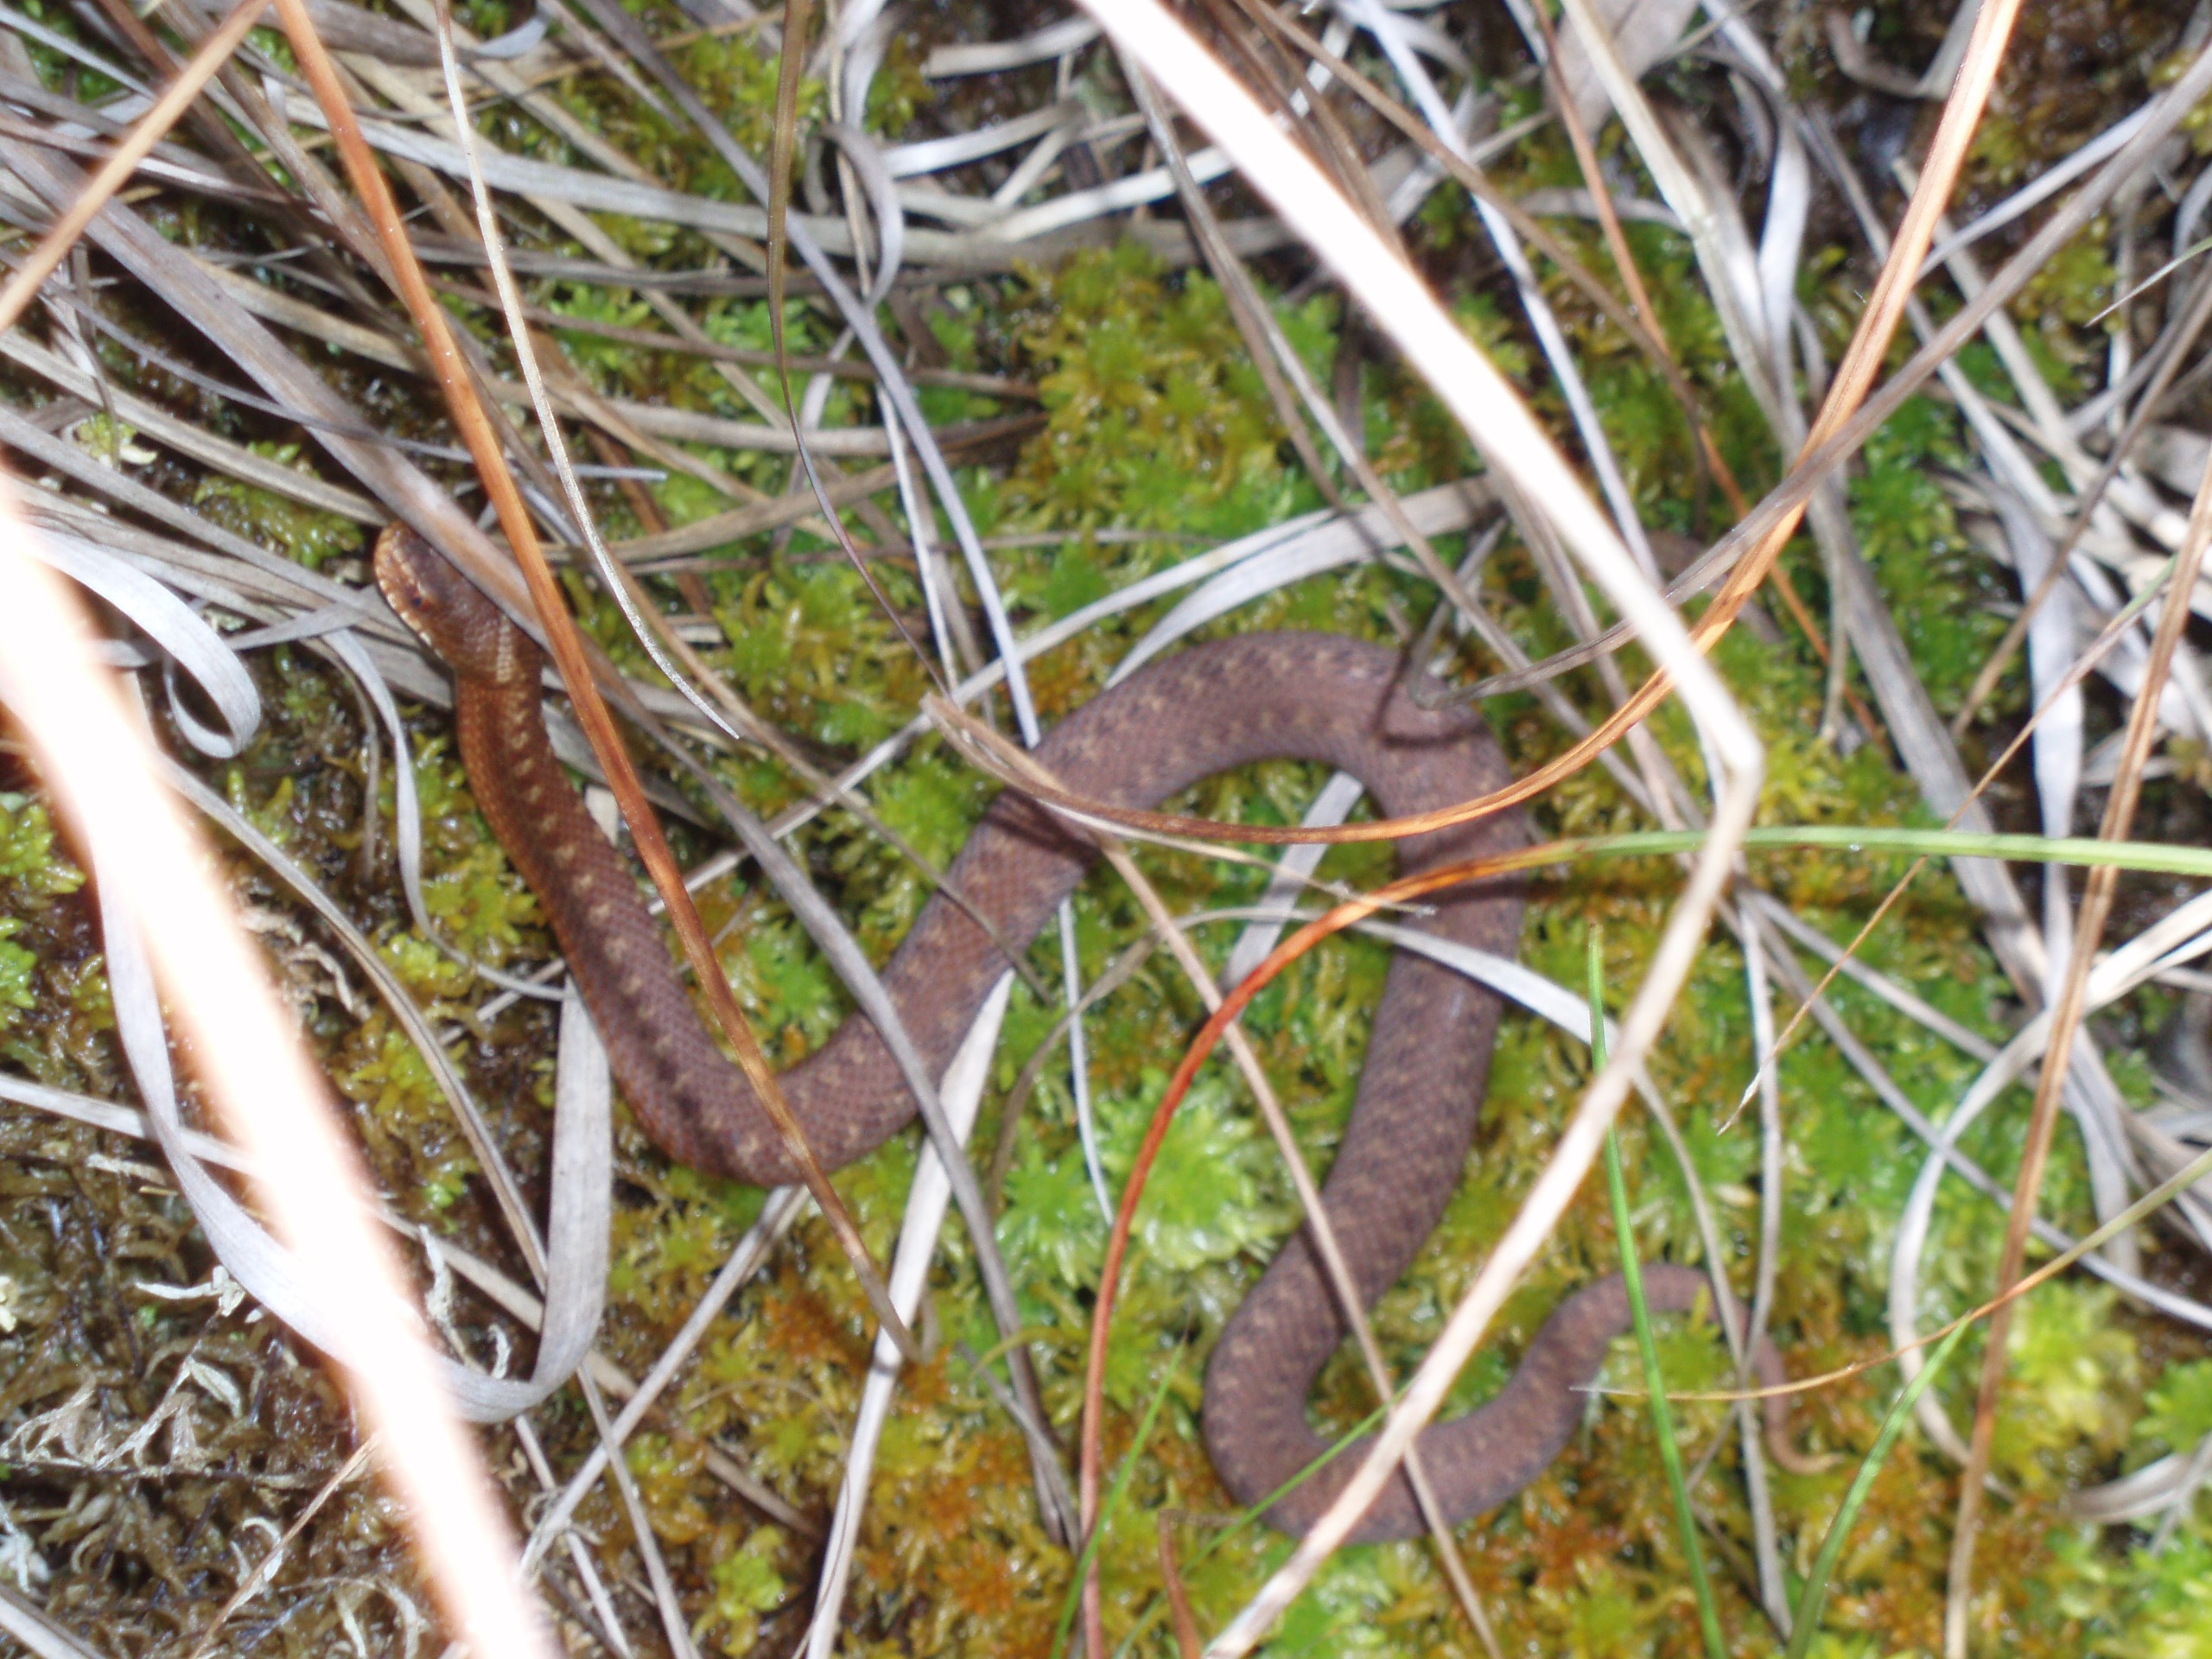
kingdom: Animalia
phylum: Chordata
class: Squamata
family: Viperidae
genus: Vipera
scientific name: Vipera berus
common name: Hugorm
